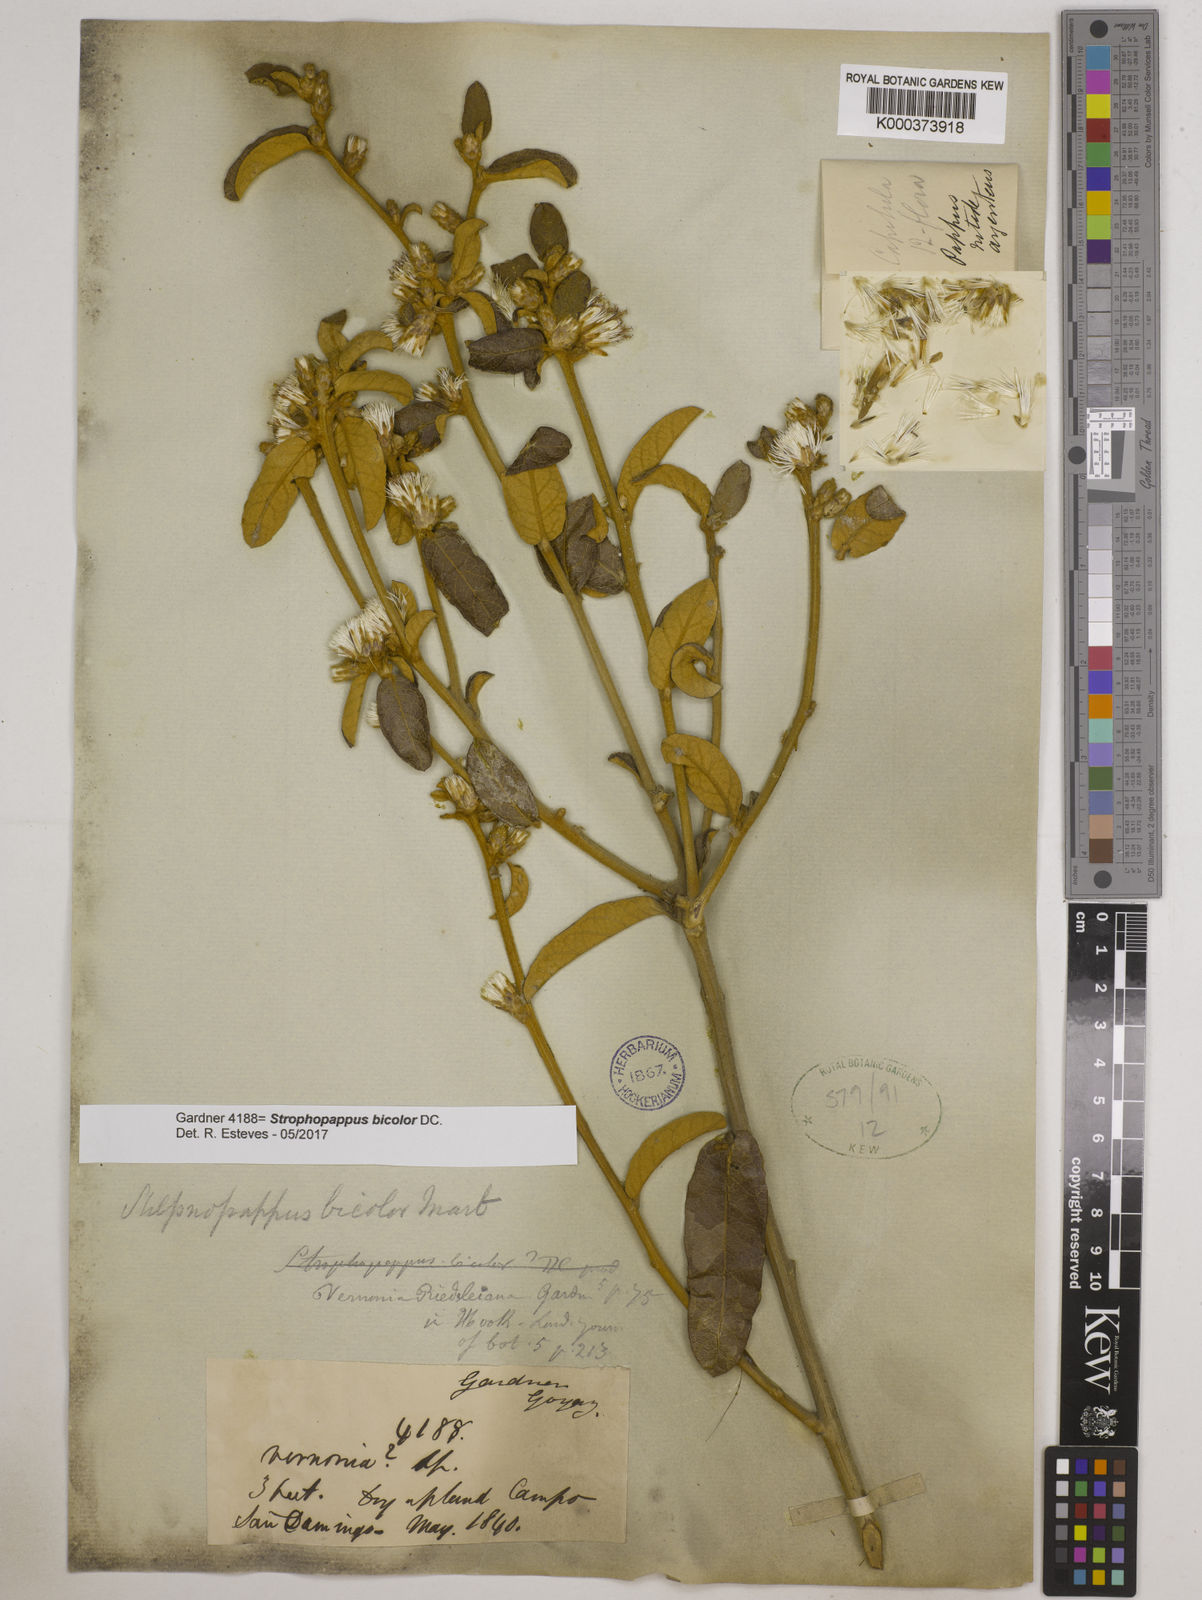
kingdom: Plantae
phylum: Tracheophyta
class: Magnoliopsida
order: Asterales
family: Asteraceae
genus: Stilpnopappus
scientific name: Stilpnopappus bicolor
